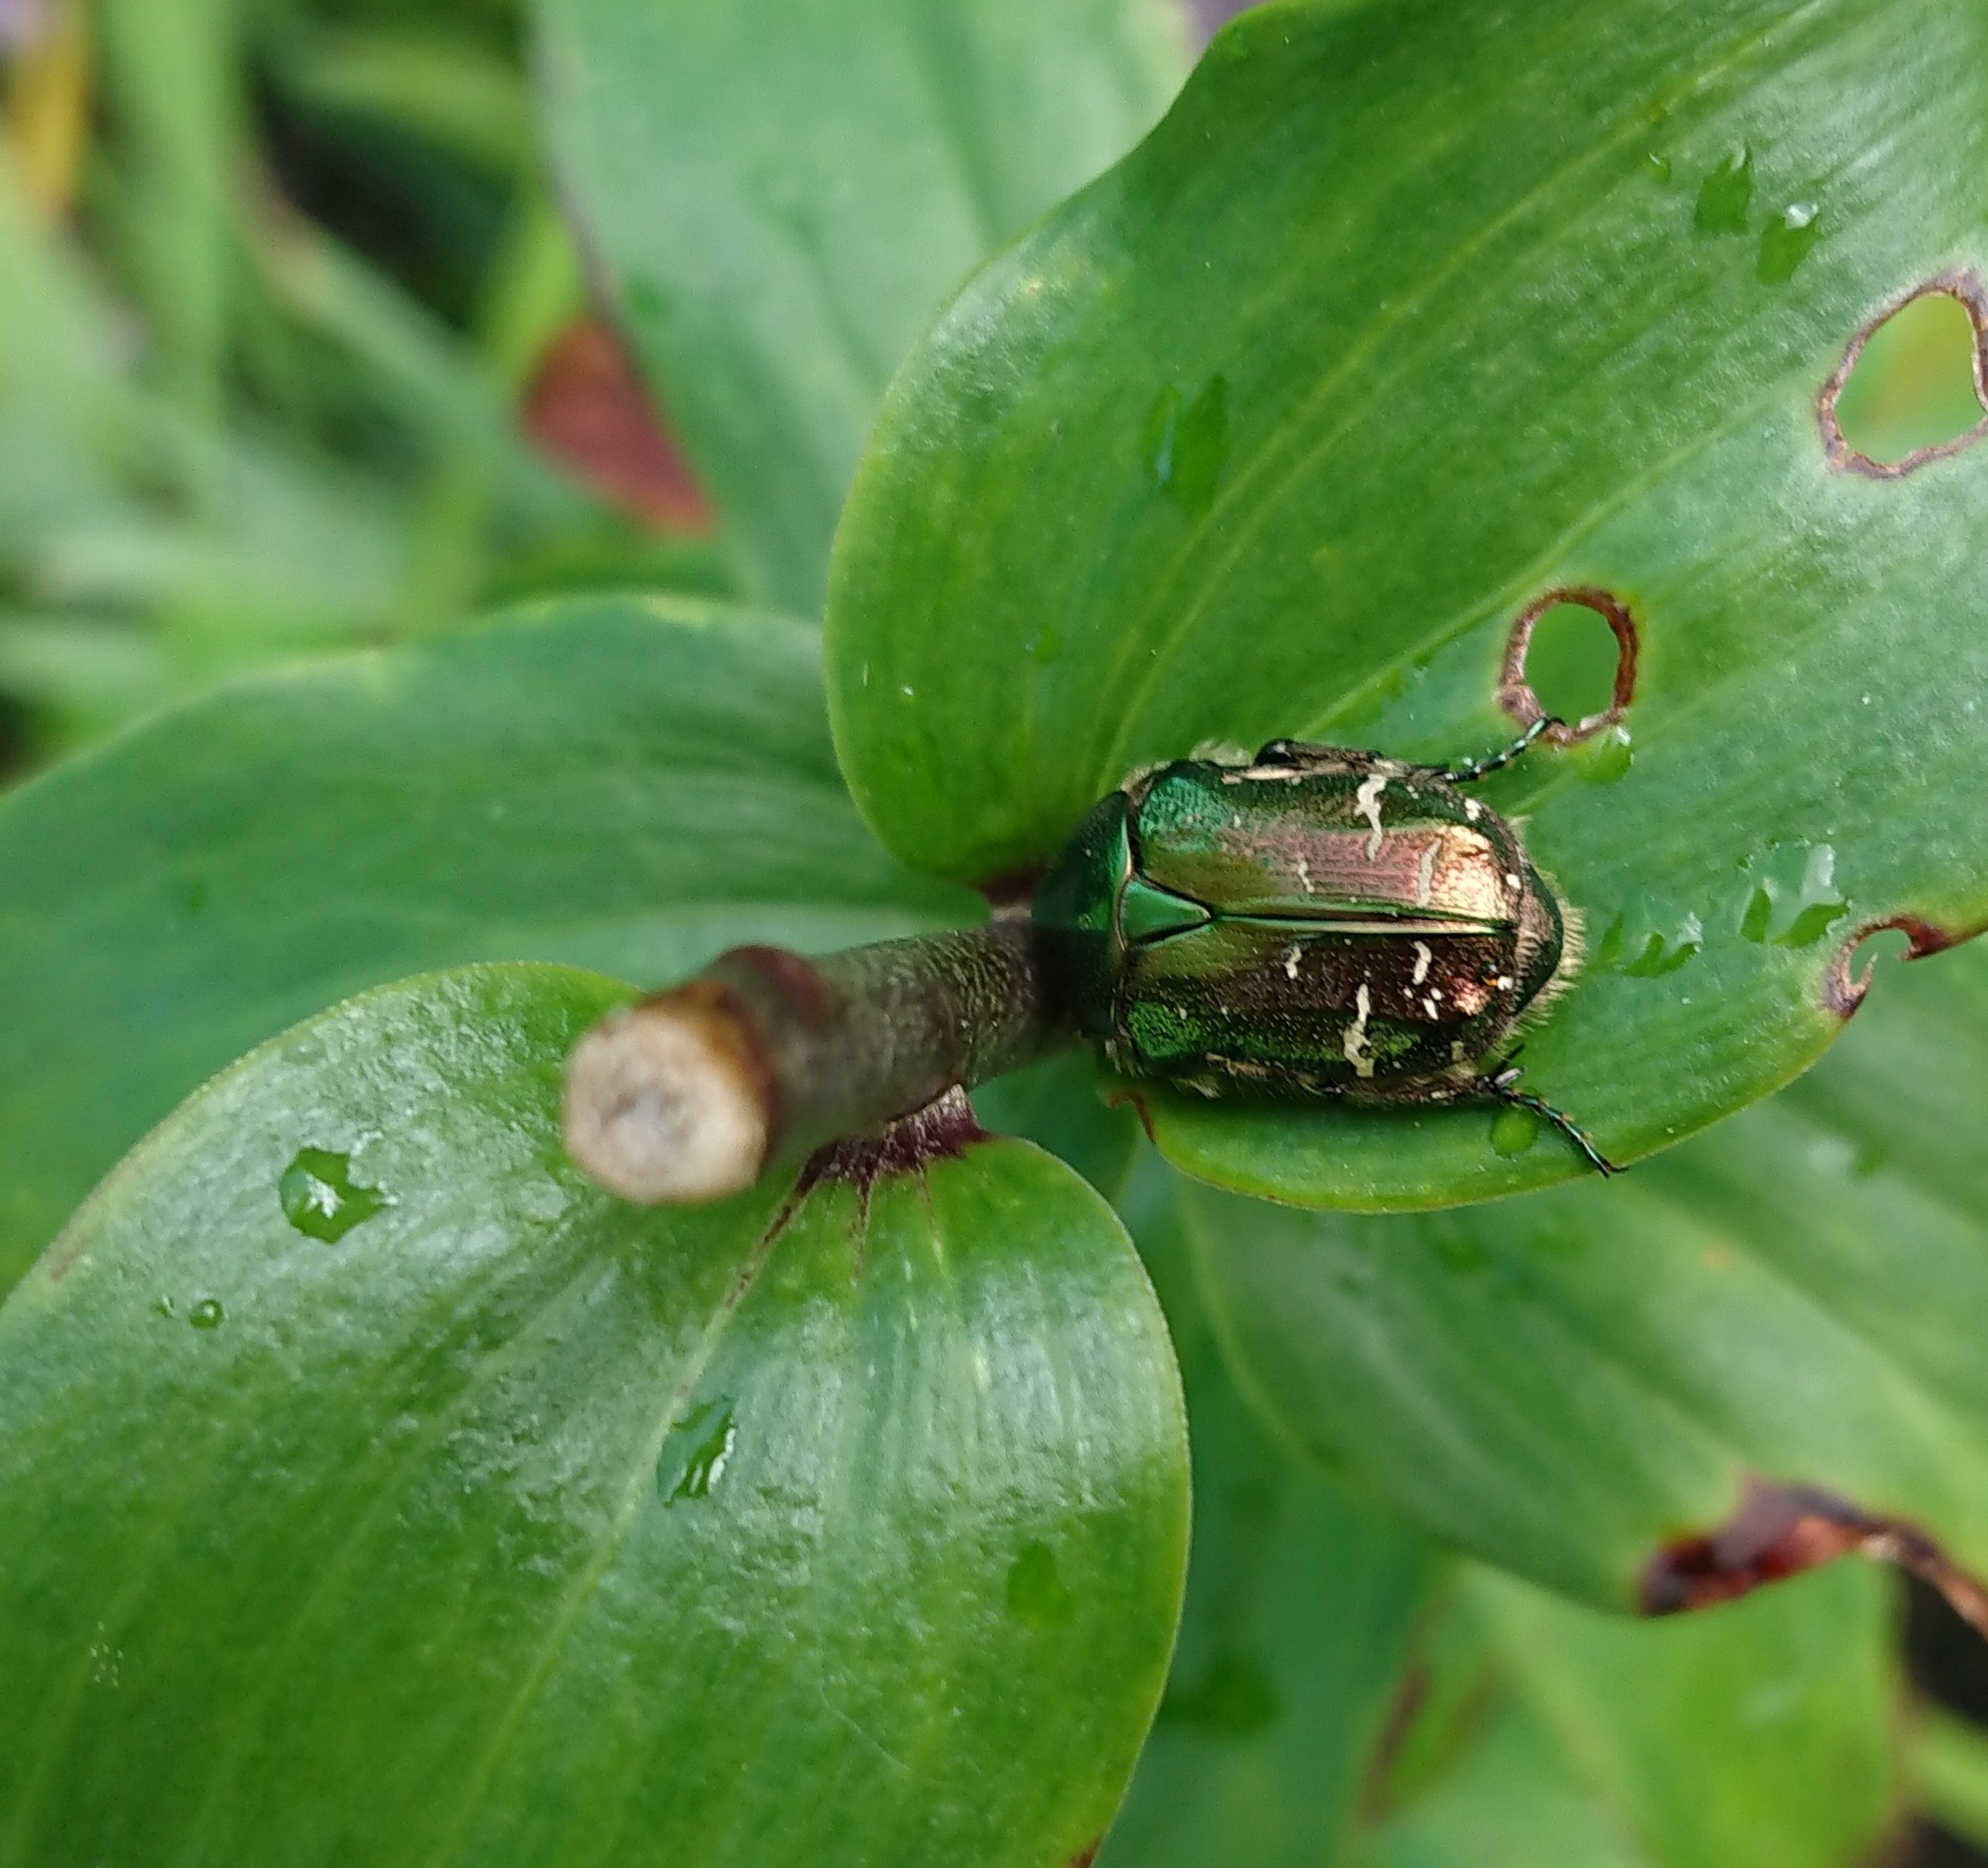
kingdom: Animalia
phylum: Arthropoda
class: Insecta
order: Coleoptera
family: Scarabaeidae
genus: Cetonia
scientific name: Cetonia aurata
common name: Grøn guldbasse
